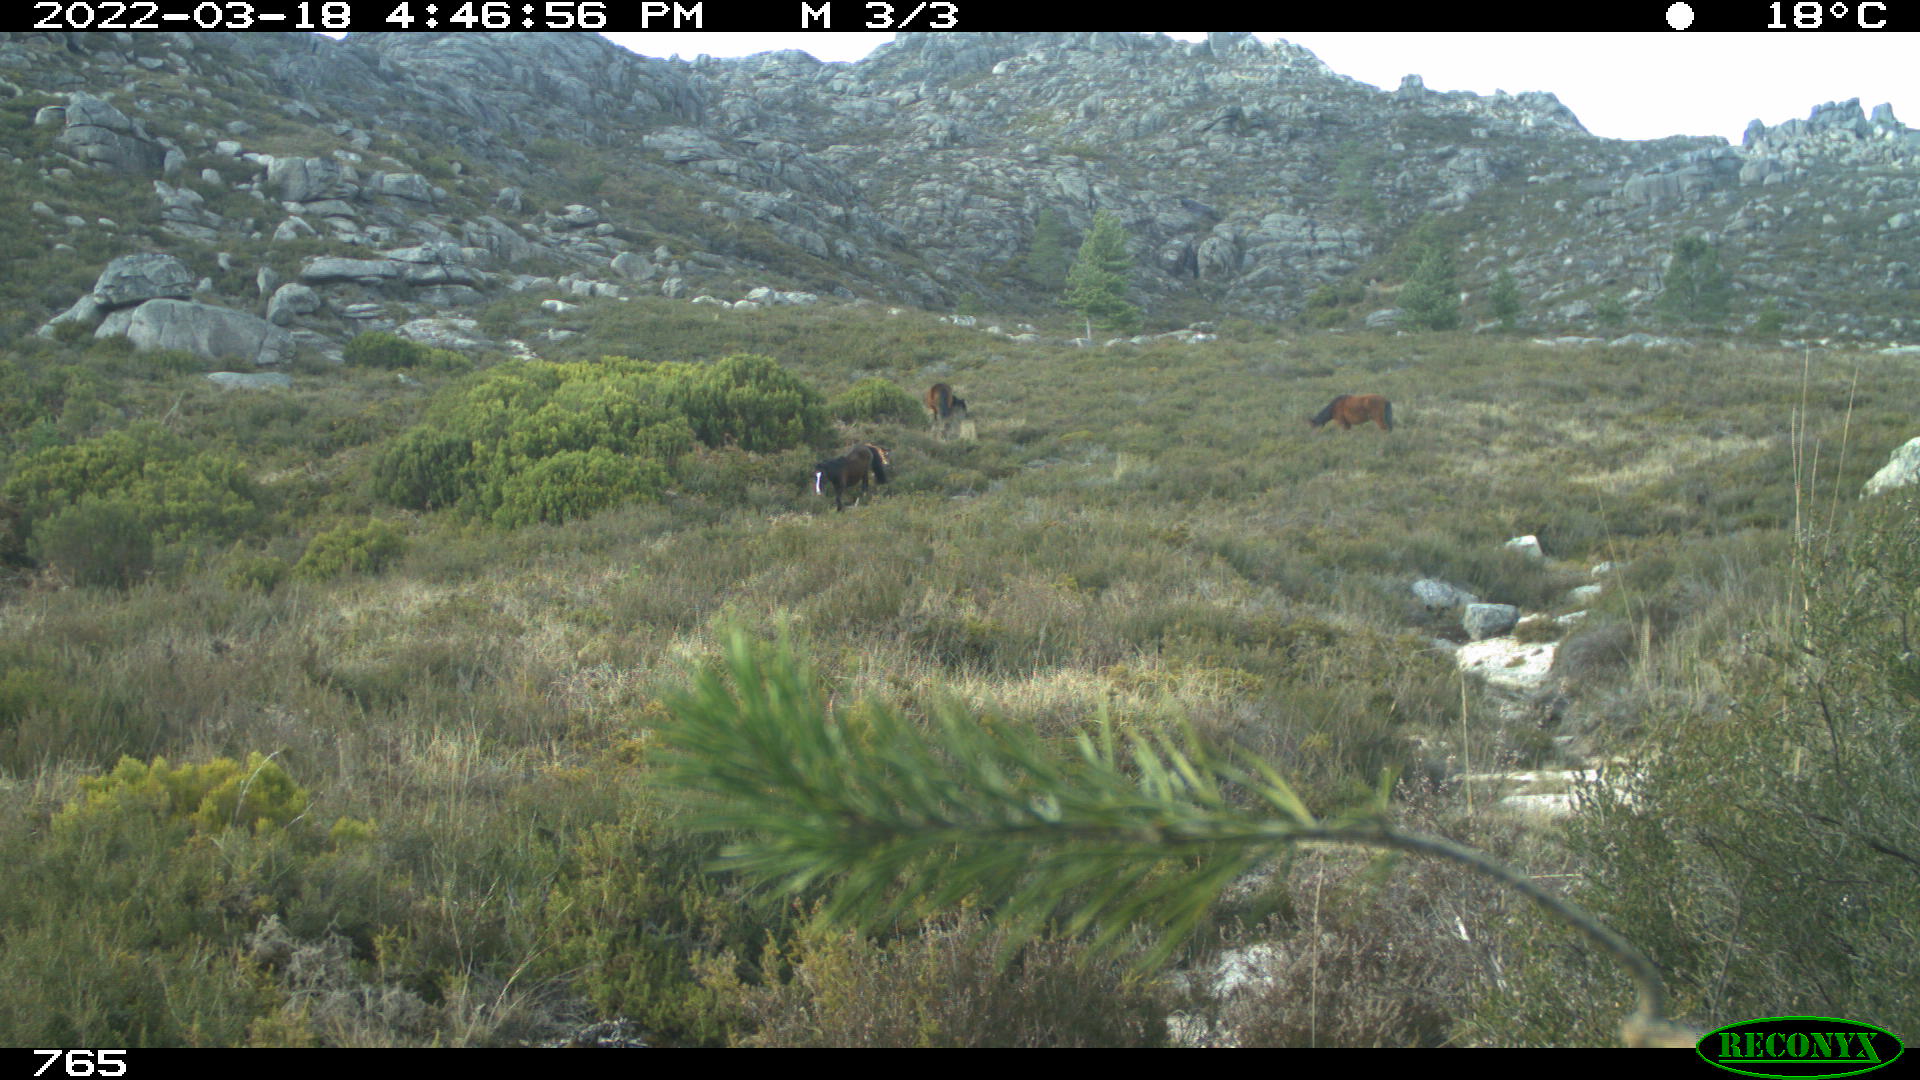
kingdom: Animalia
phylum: Chordata
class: Mammalia
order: Perissodactyla
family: Equidae
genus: Equus
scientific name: Equus caballus
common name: Horse
